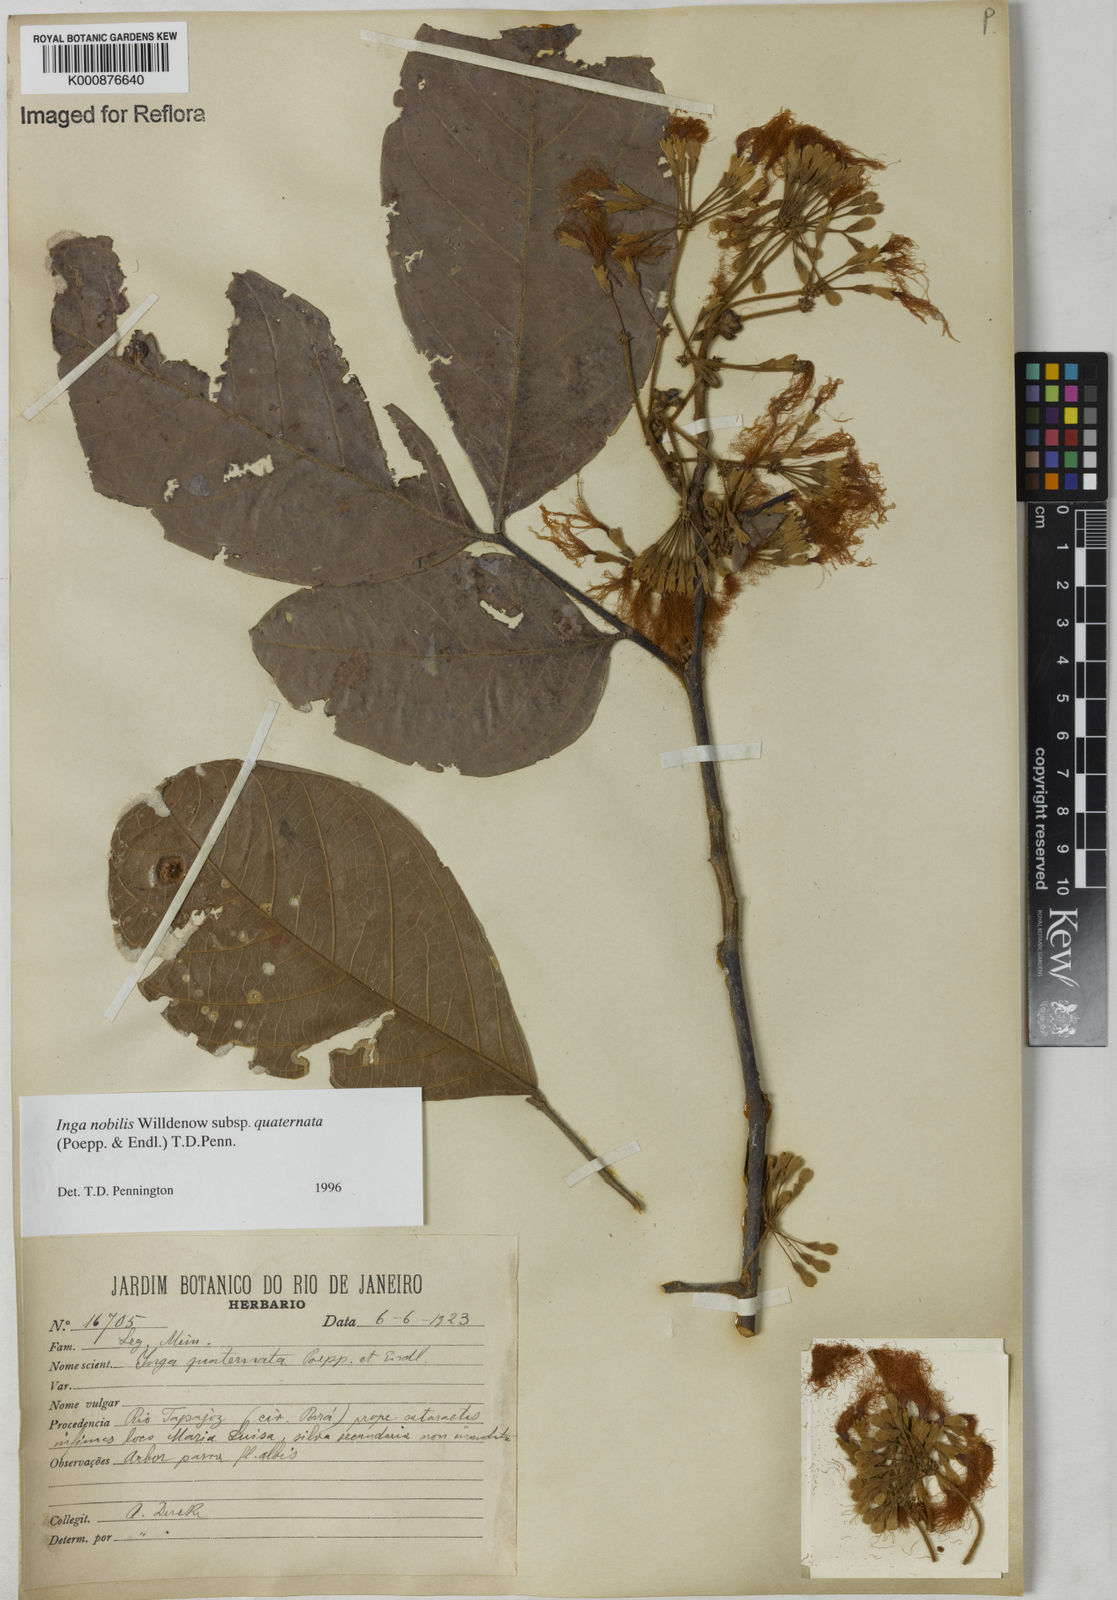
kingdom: Plantae
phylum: Tracheophyta
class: Magnoliopsida
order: Fabales
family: Fabaceae
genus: Inga
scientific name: Inga nobilis
